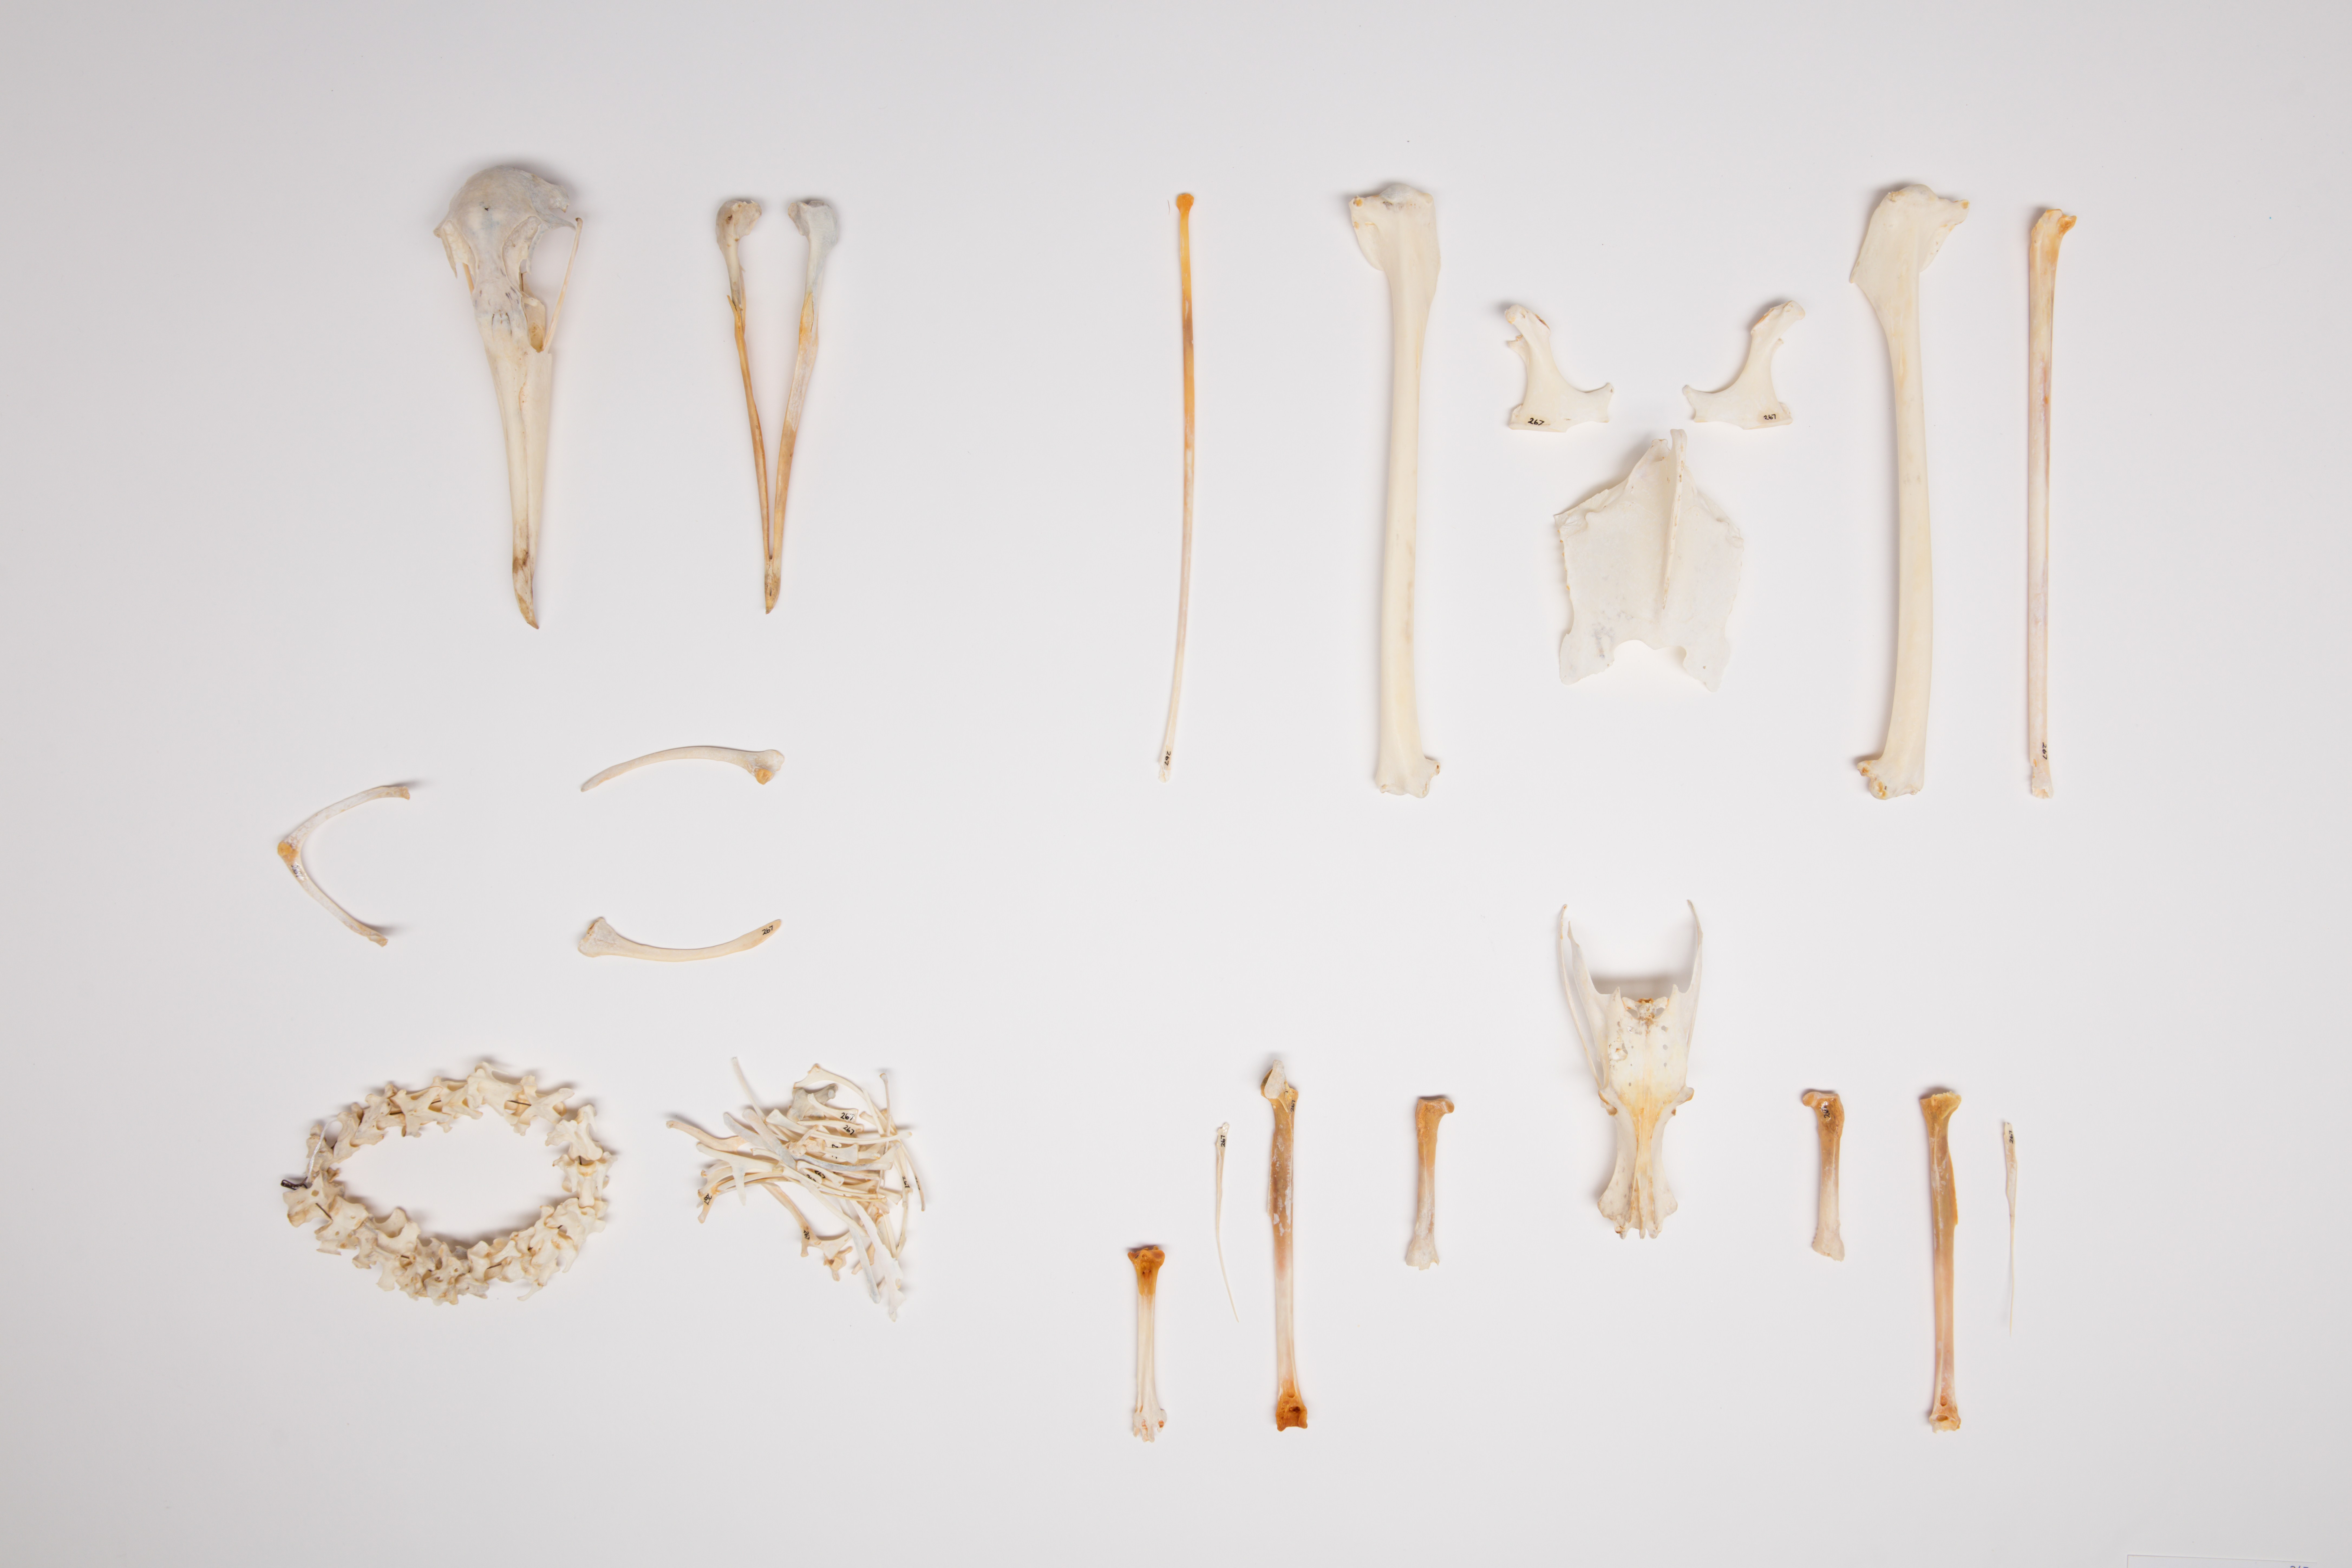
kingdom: Animalia
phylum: Chordata
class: Aves
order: Procellariiformes
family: Diomedeidae
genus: Thalassarche
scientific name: Thalassarche chlororhynchos
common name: Atlantic yellow-nosed albatross
